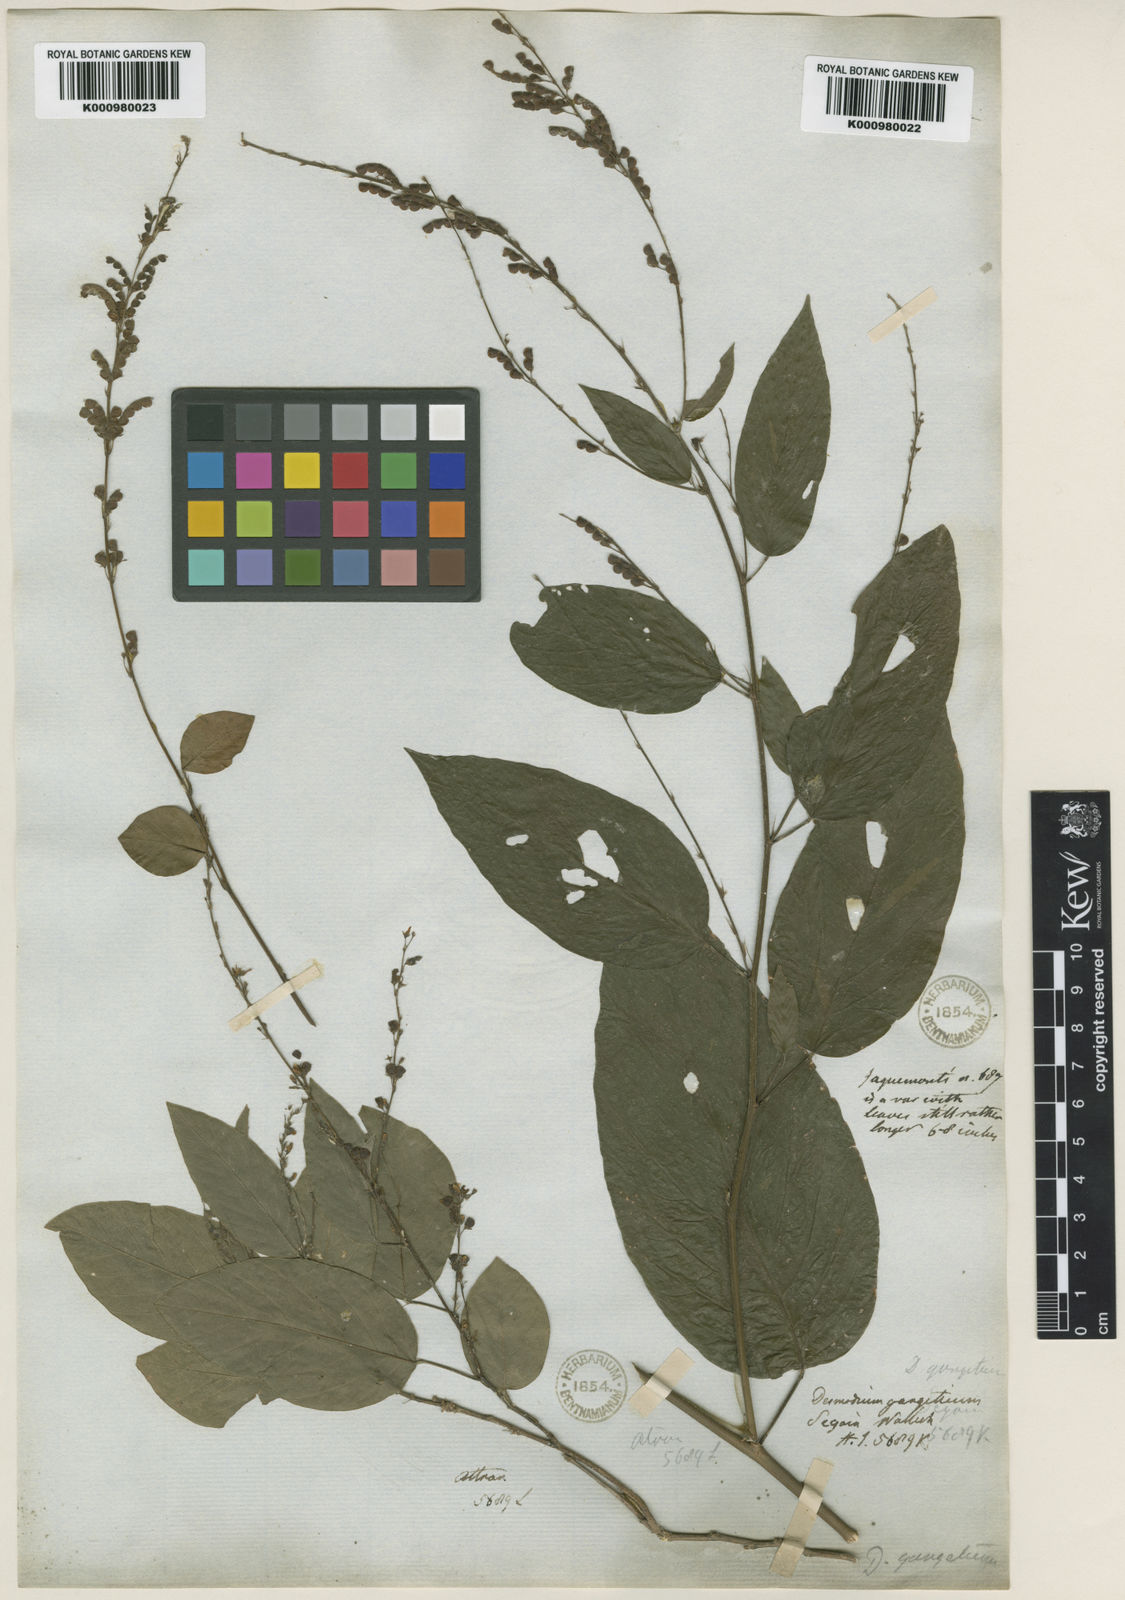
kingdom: Plantae
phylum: Tracheophyta
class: Magnoliopsida
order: Fabales
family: Fabaceae
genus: Pleurolobus
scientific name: Pleurolobus gangeticus
